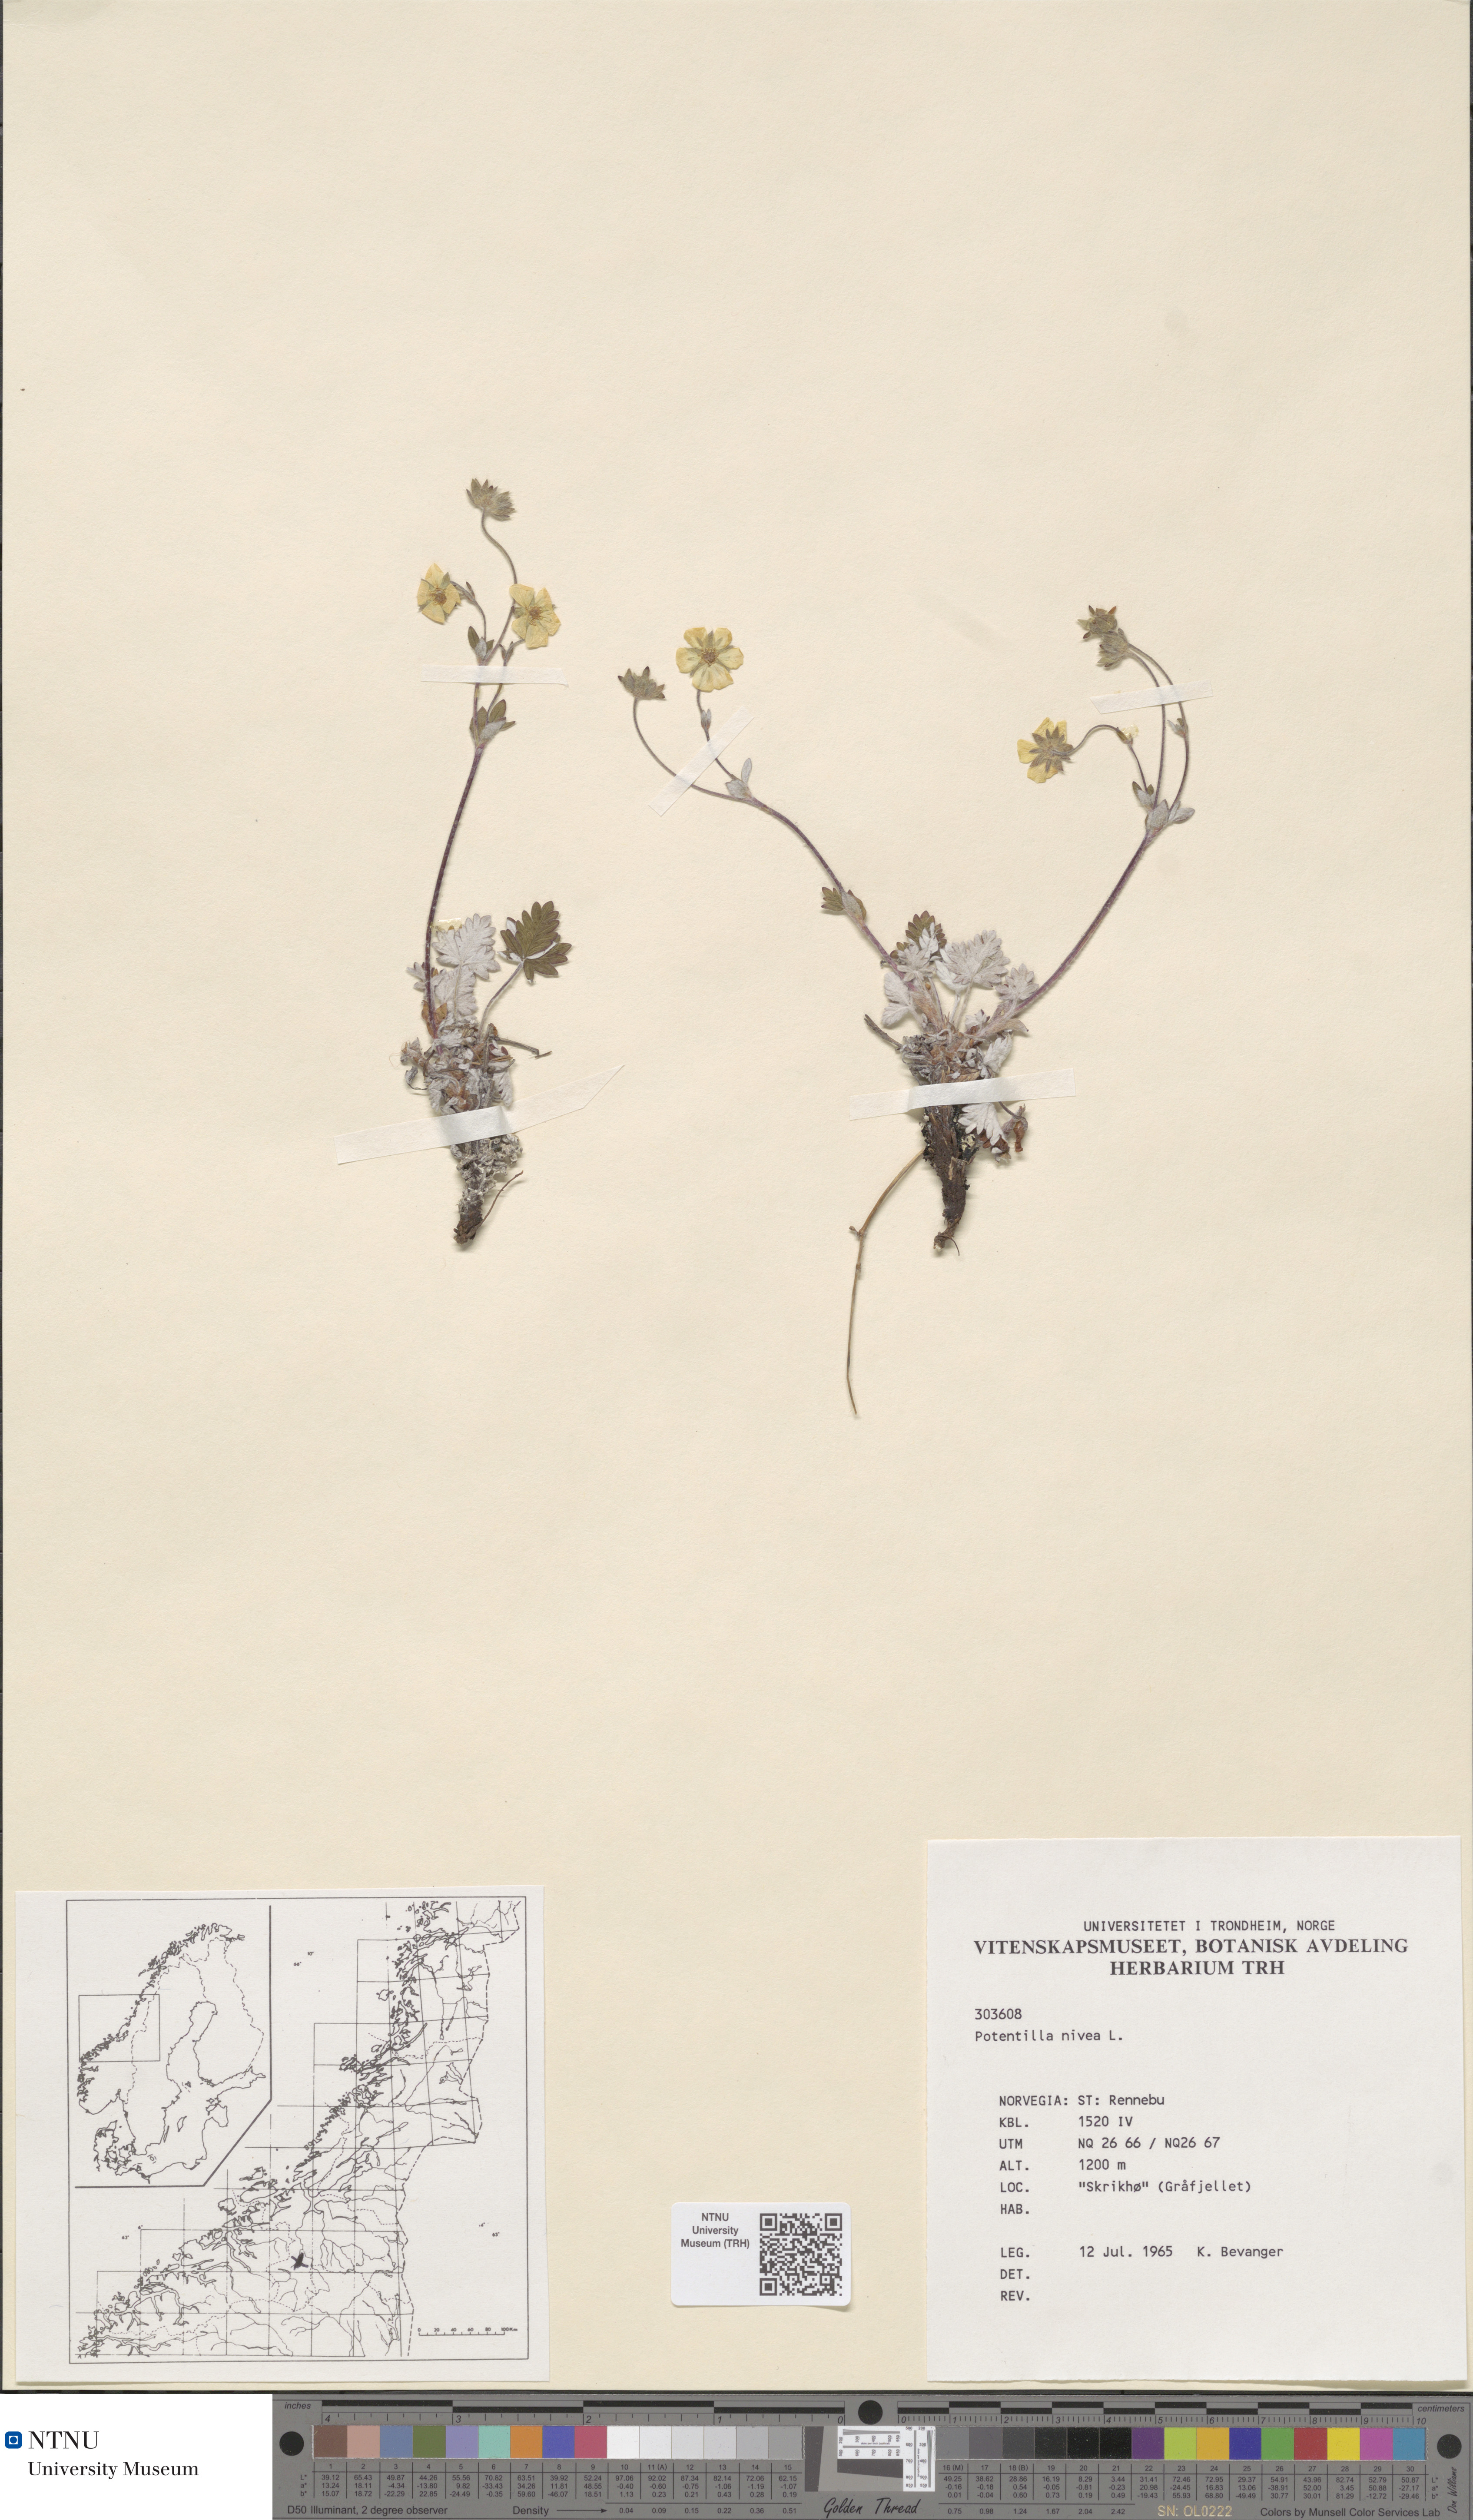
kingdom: Plantae
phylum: Tracheophyta
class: Magnoliopsida
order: Rosales
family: Rosaceae
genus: Potentilla
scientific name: Potentilla nivea
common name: Snow cinquefoil
